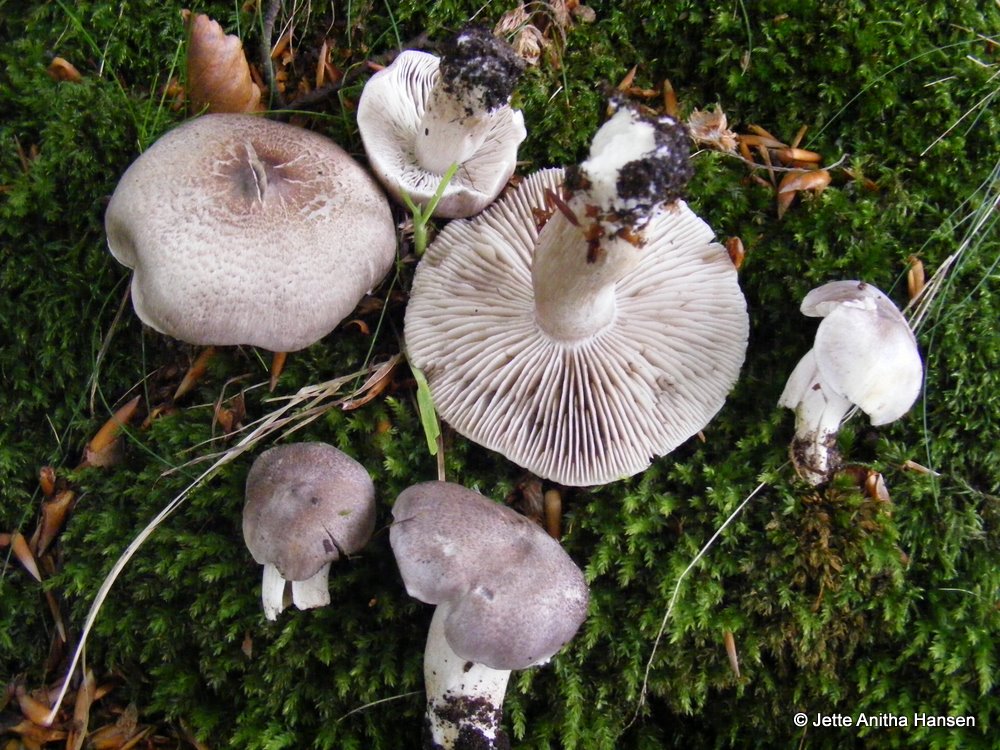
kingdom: Fungi
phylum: Basidiomycota
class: Agaricomycetes
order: Agaricales
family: Tricholomataceae
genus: Tricholoma
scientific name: Tricholoma sciodes
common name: stribet ridderhat
